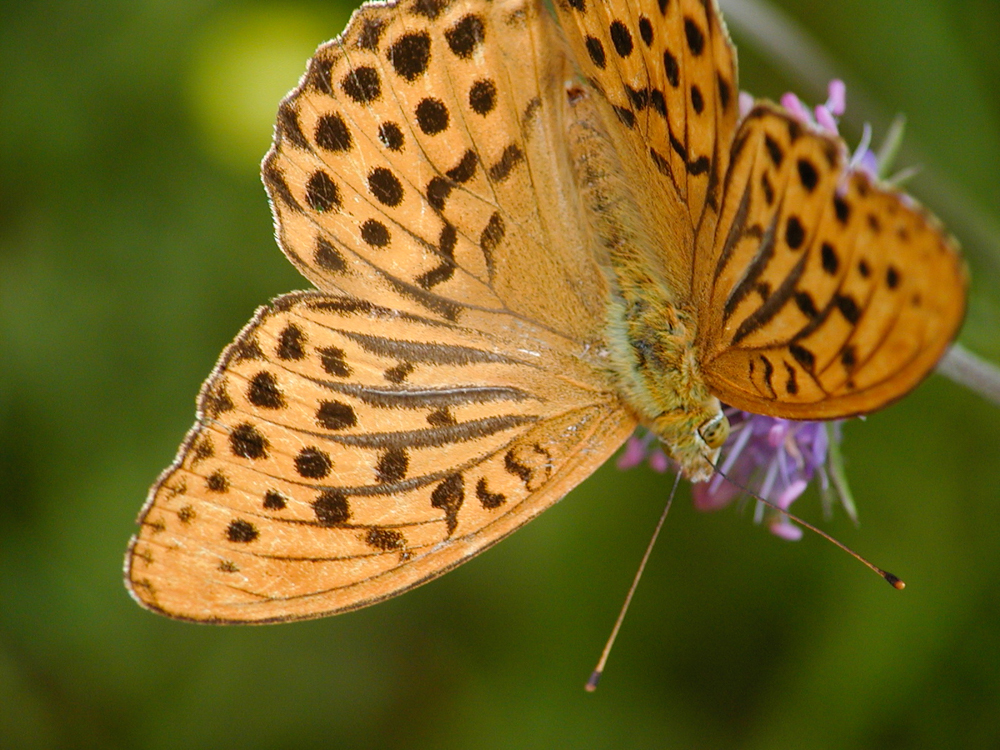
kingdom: Animalia
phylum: Arthropoda
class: Insecta
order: Lepidoptera
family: Nymphalidae
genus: Argynnis
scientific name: Argynnis paphia
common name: Silver-washed fritillary
